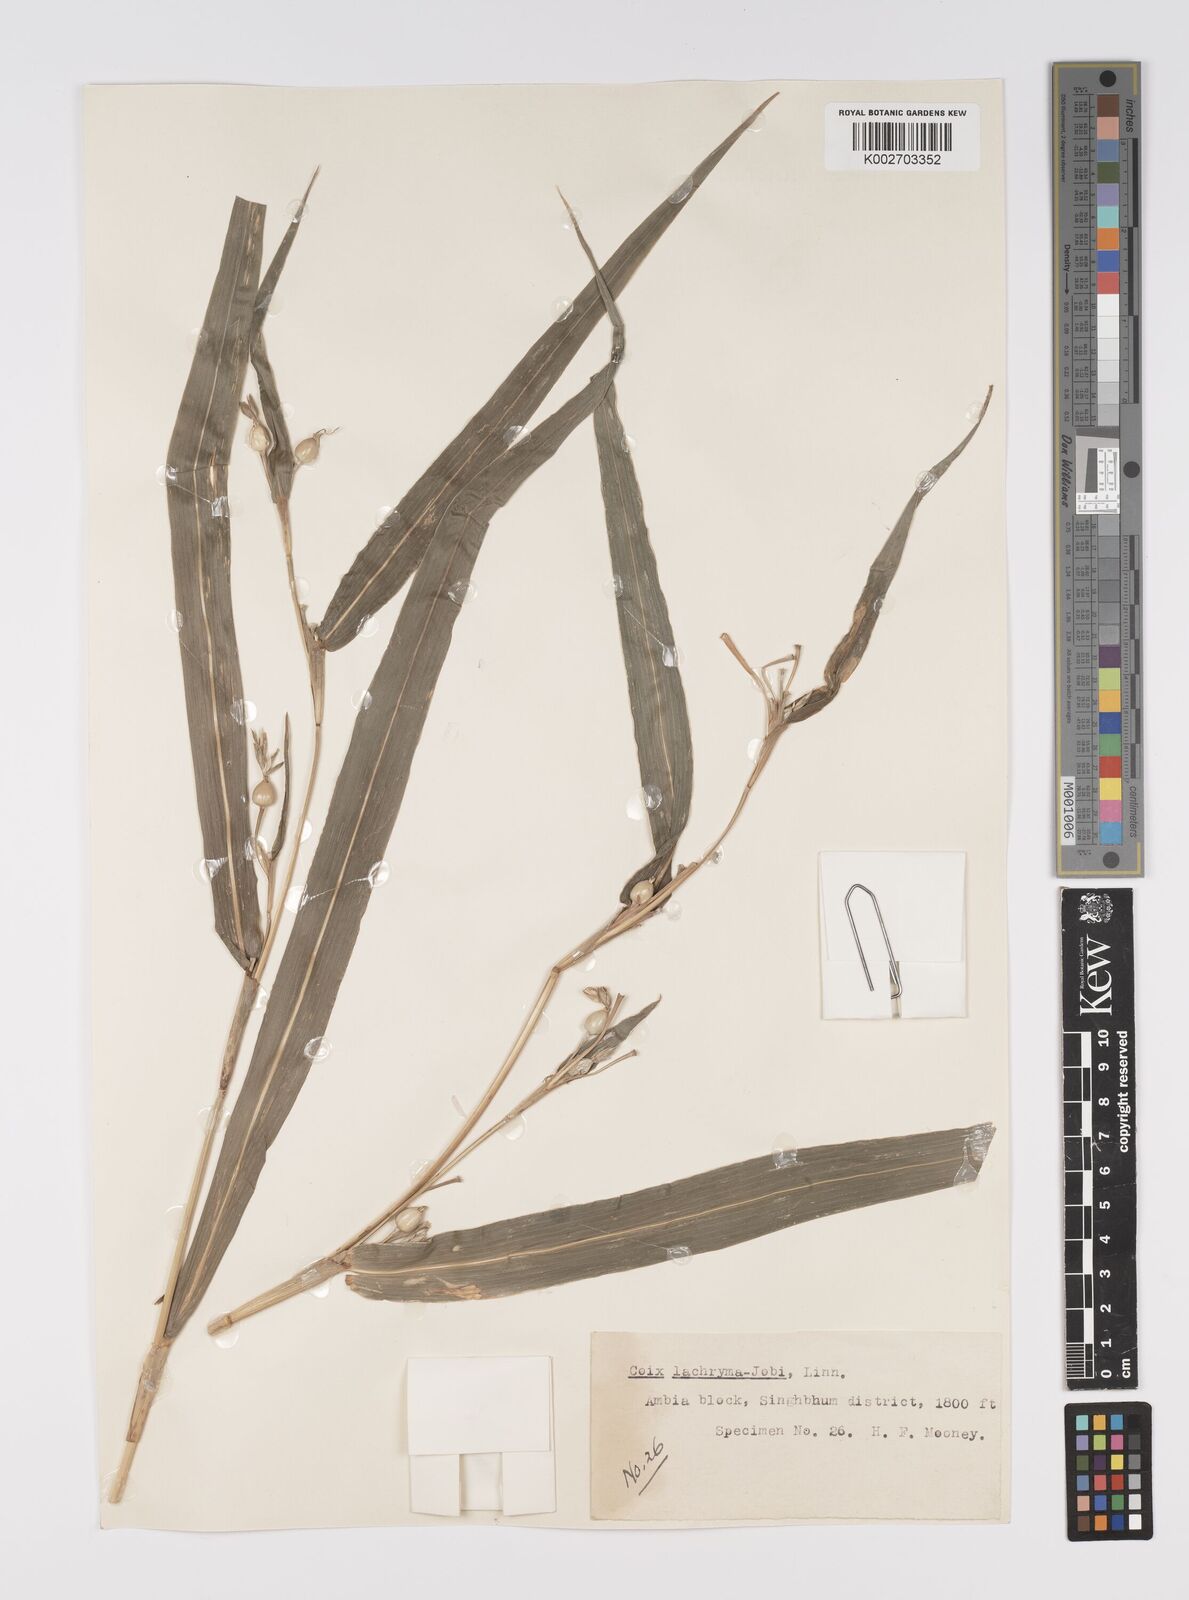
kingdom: Plantae
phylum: Tracheophyta
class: Liliopsida
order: Poales
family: Poaceae
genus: Coix
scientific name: Coix lacryma-jobi
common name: Job's tears
